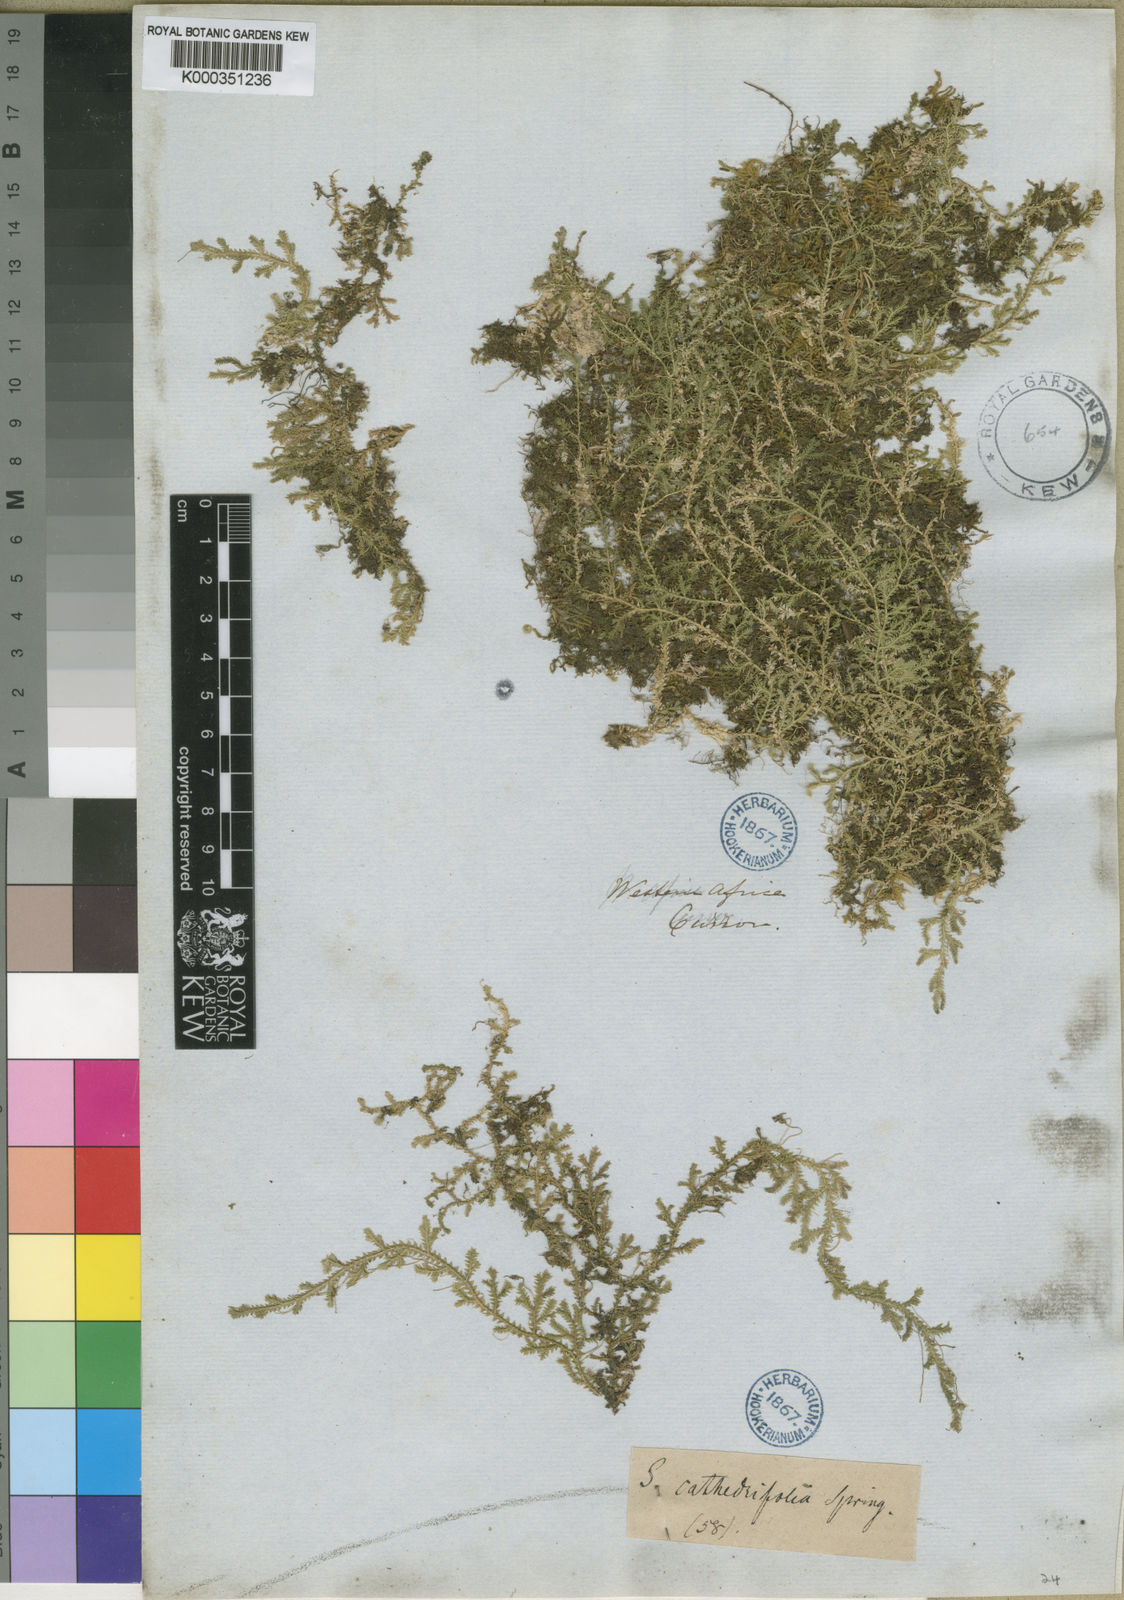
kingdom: Plantae
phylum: Tracheophyta
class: Lycopodiopsida
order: Selaginellales
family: Selaginellaceae
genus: Selaginella
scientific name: Selaginella cathedrifolia
